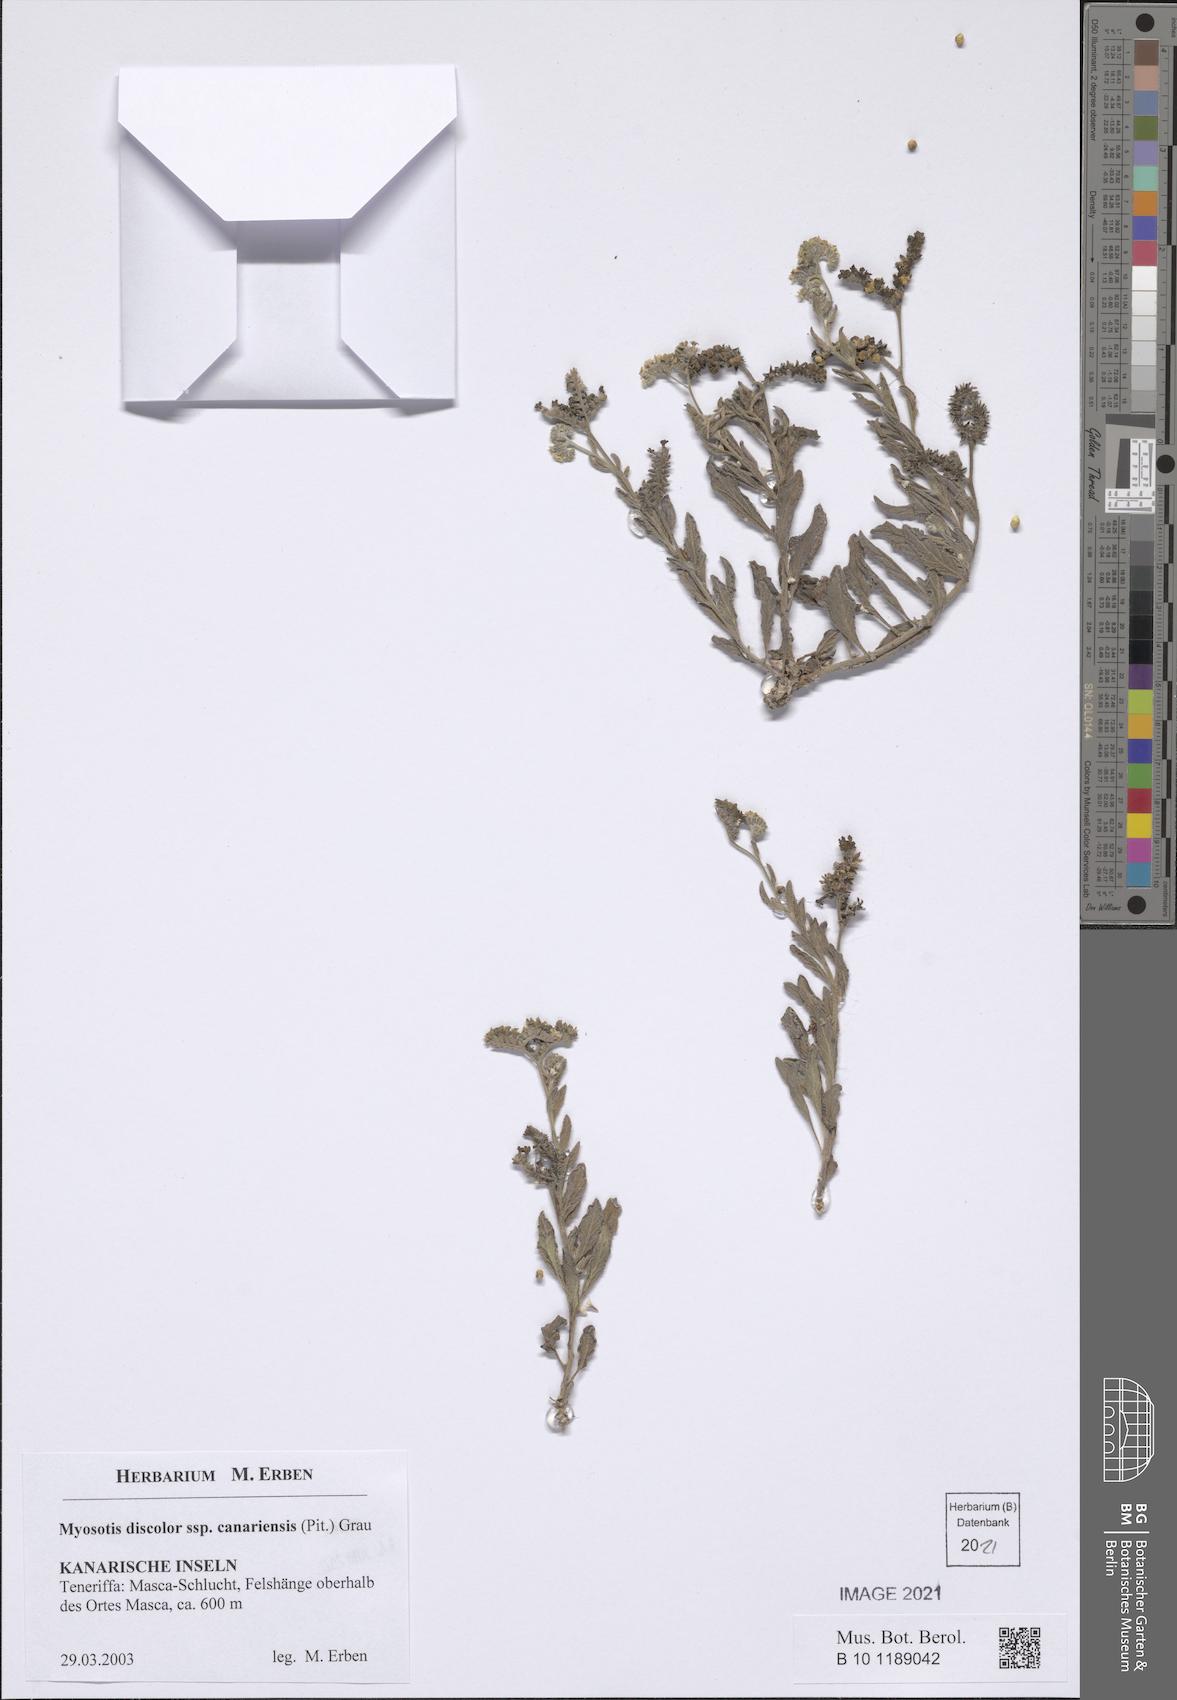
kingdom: Plantae
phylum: Tracheophyta
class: Magnoliopsida
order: Boraginales
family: Boraginaceae
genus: Myosotis
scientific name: Myosotis discolor
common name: Changing forget-me-not
